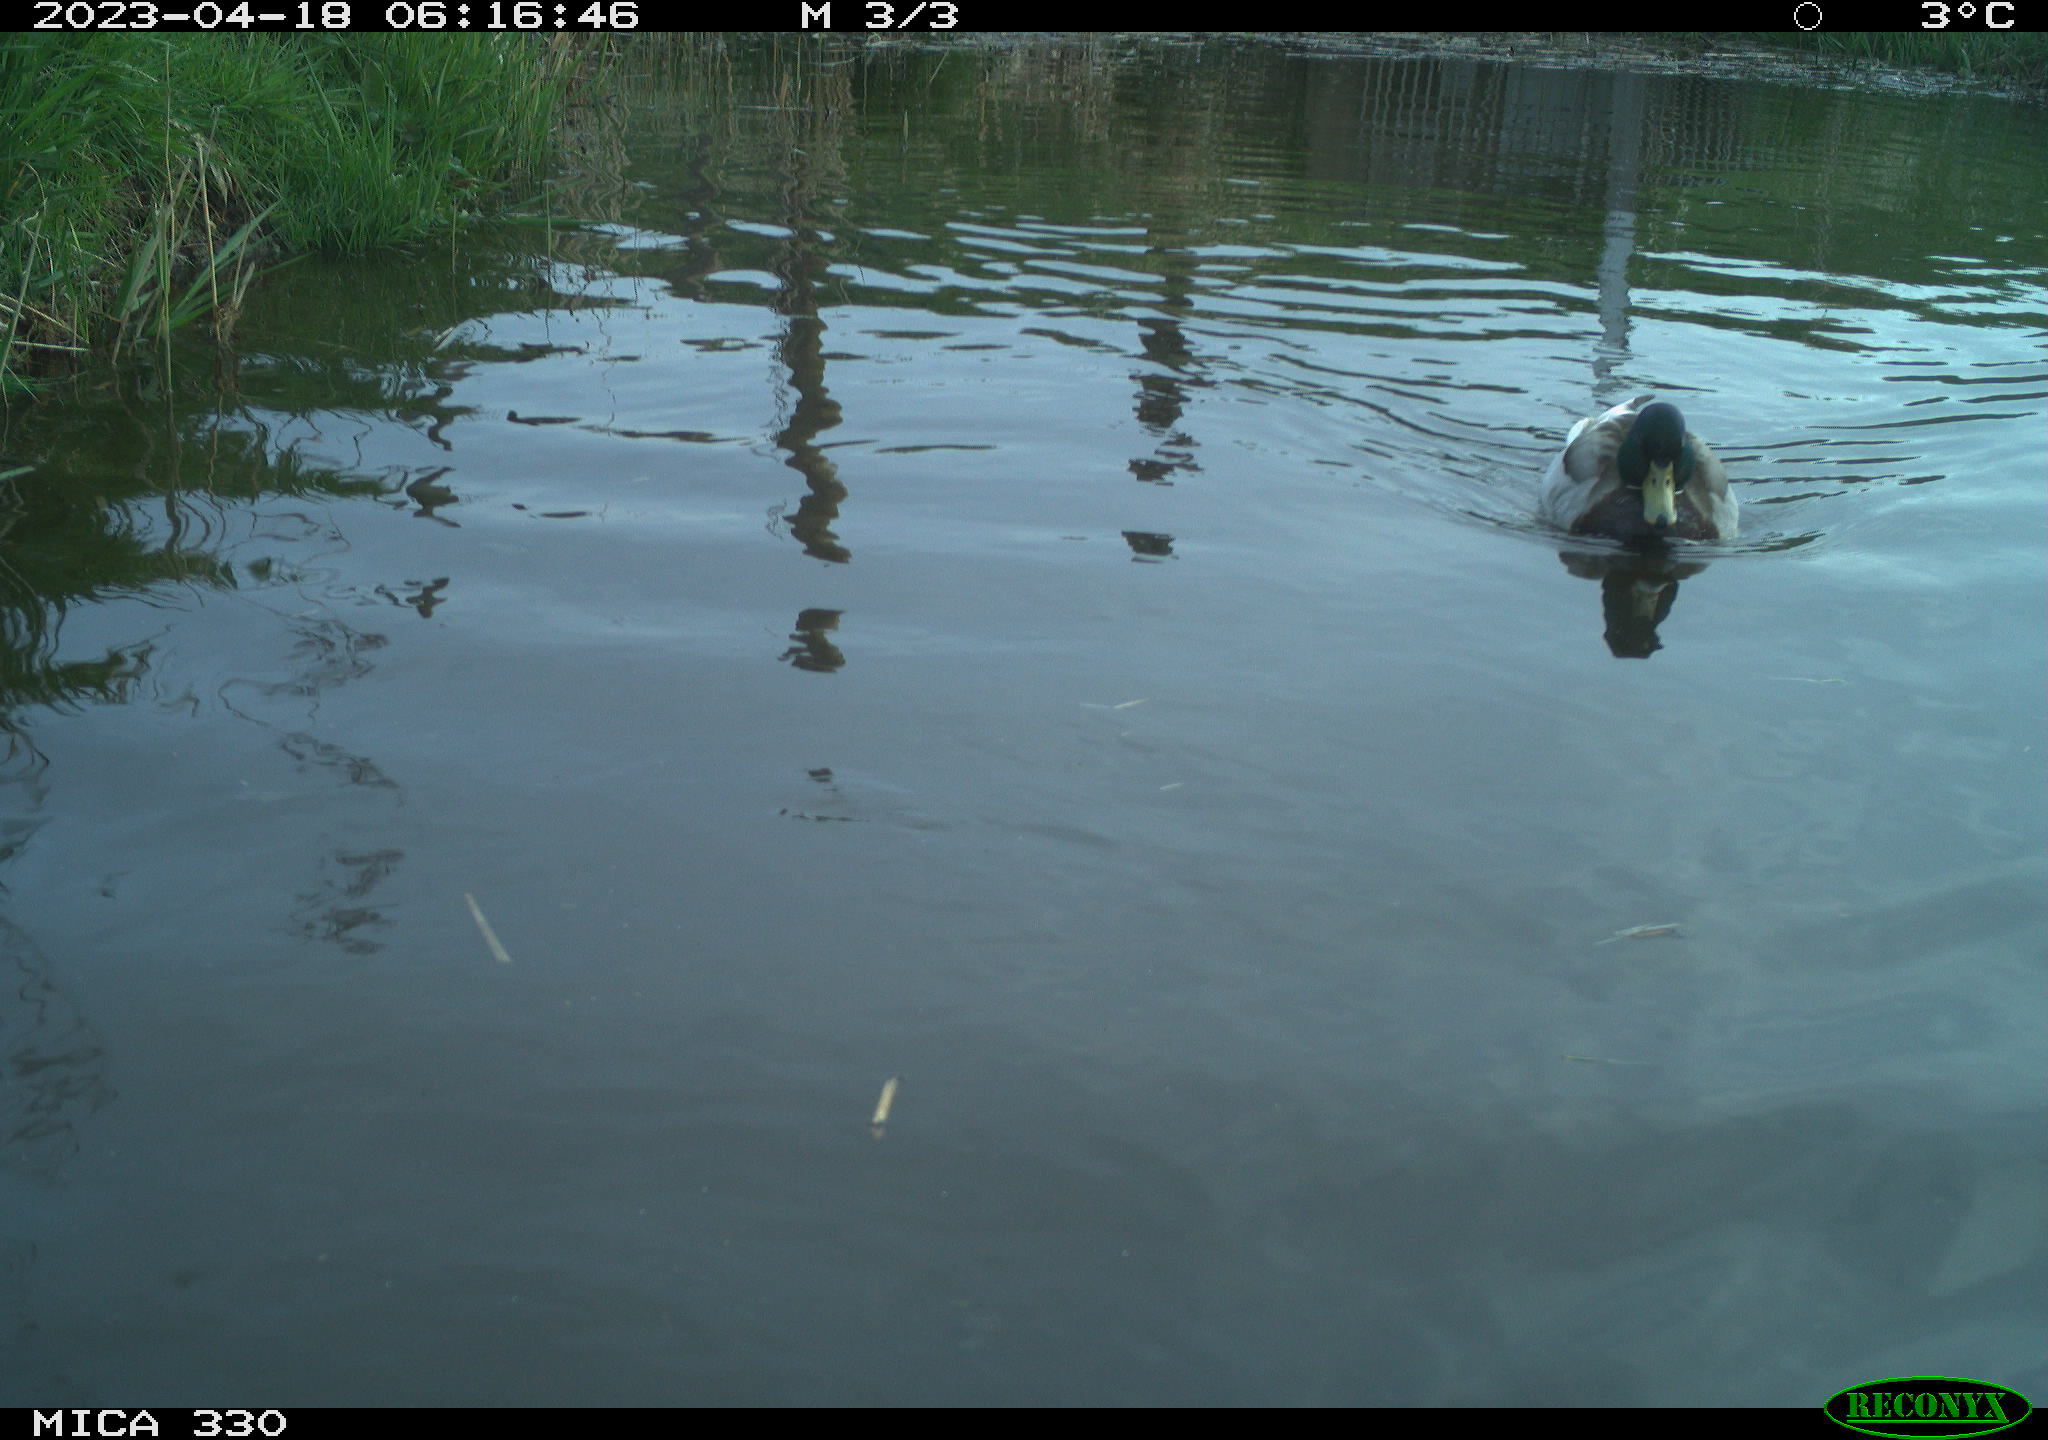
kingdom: Animalia
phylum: Chordata
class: Aves
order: Anseriformes
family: Anatidae
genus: Anas
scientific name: Anas
